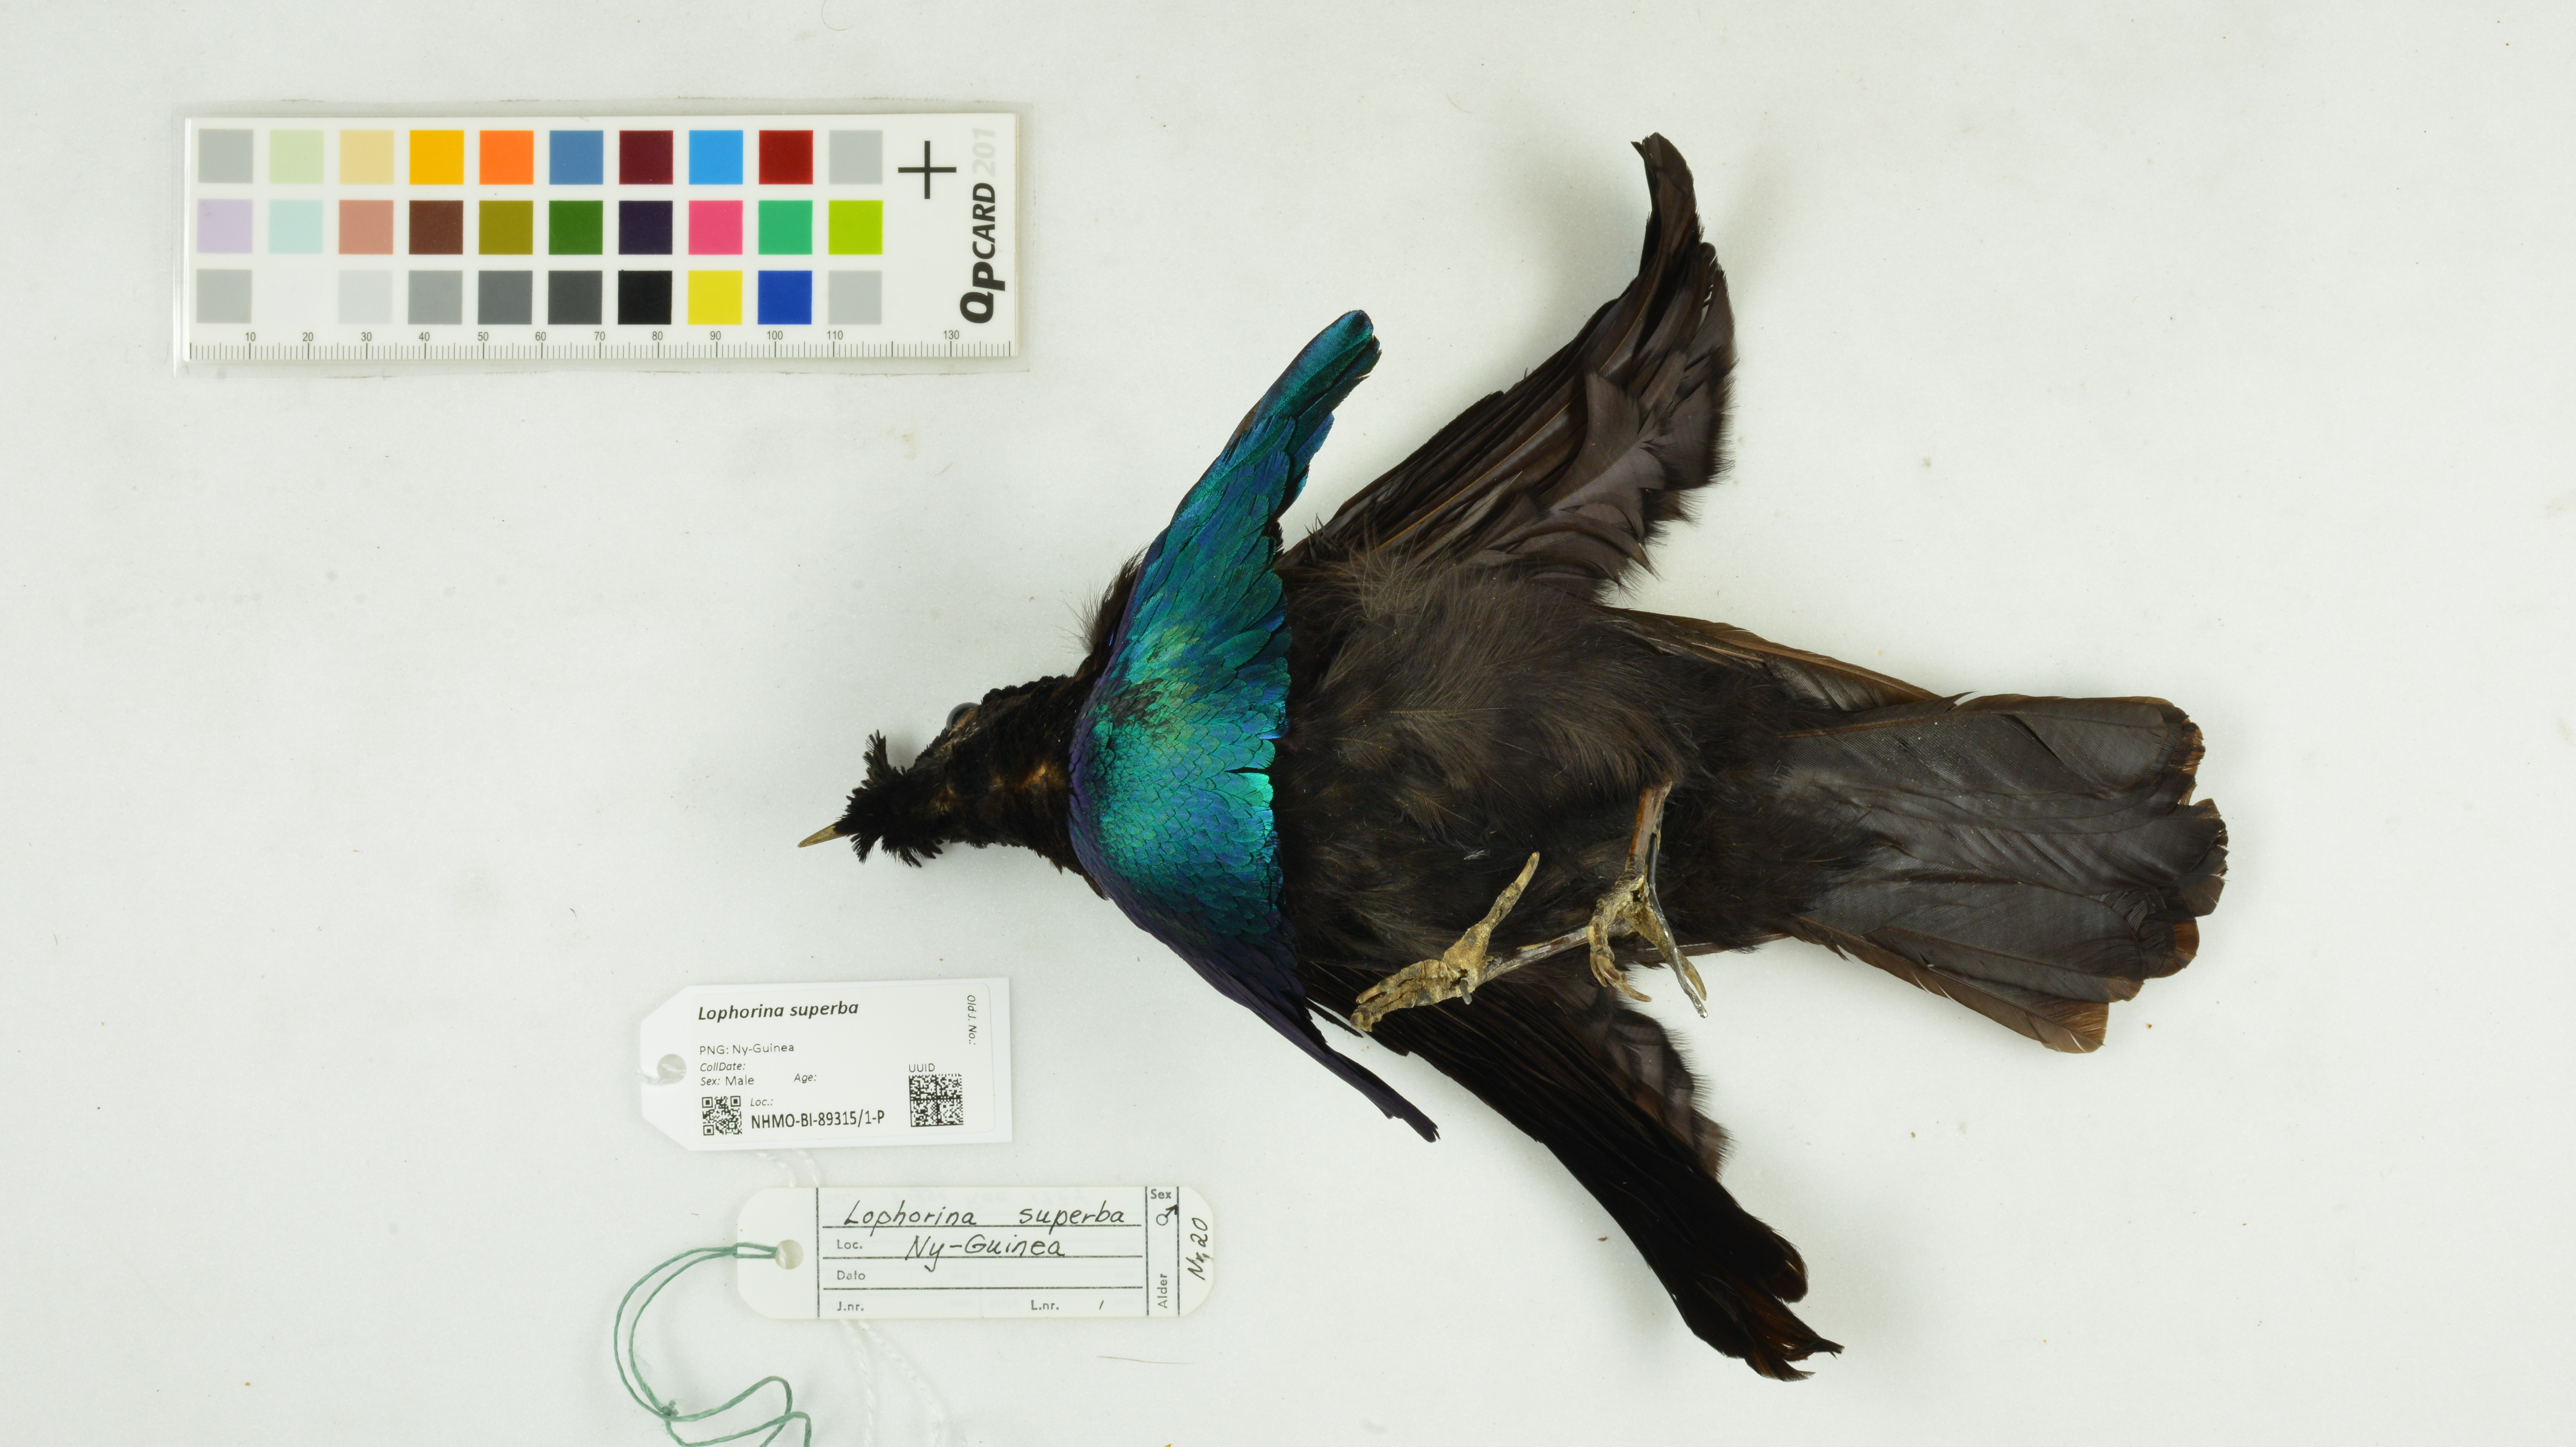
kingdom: Animalia
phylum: Chordata
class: Aves
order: Passeriformes
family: Paradisaeidae
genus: Lophorina
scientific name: Lophorina superba
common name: Superb bird-of-paradise
